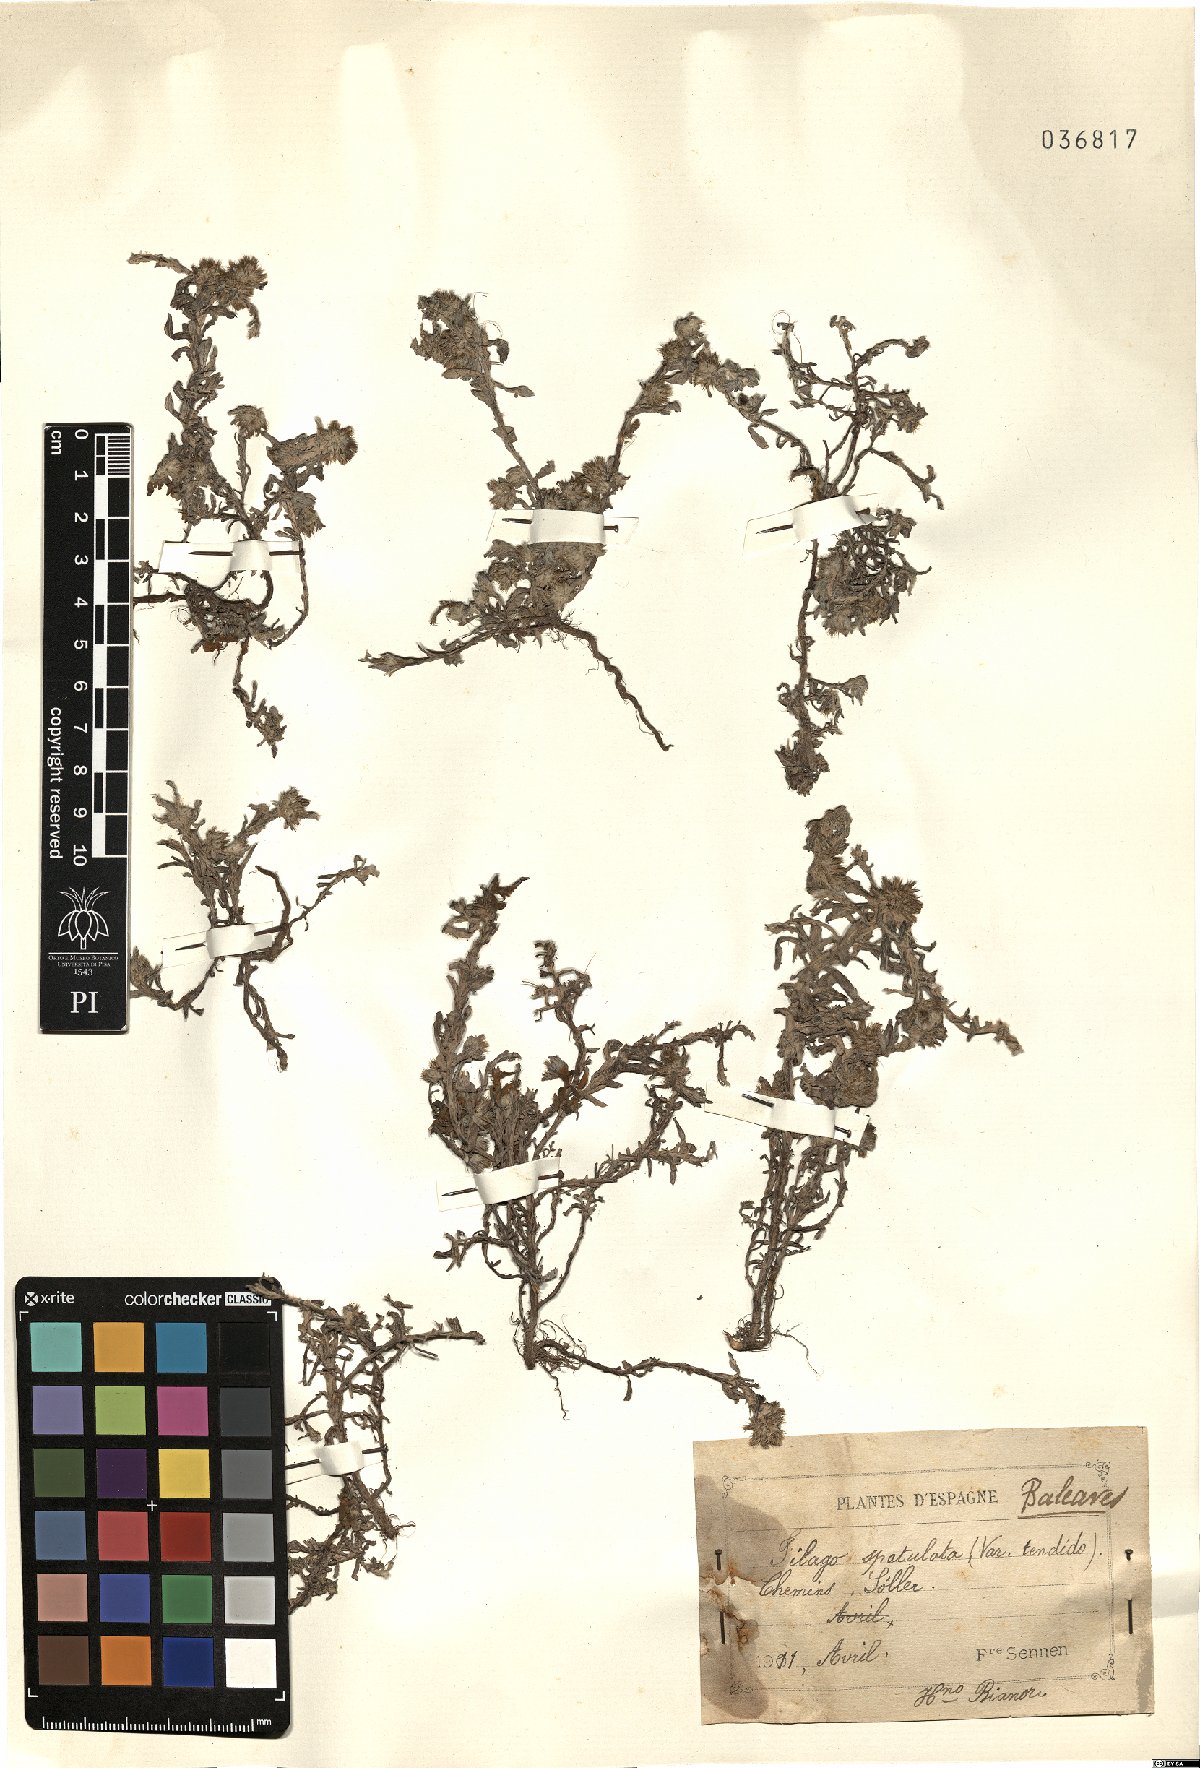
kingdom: Plantae
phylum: Tracheophyta
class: Magnoliopsida
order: Asterales
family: Asteraceae
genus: Filago
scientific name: Filago pyramidata
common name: Broad-leaved cudweed
